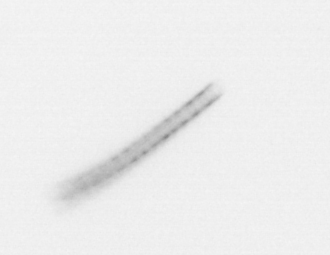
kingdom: Chromista
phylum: Ochrophyta
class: Bacillariophyceae
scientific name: Bacillariophyceae
